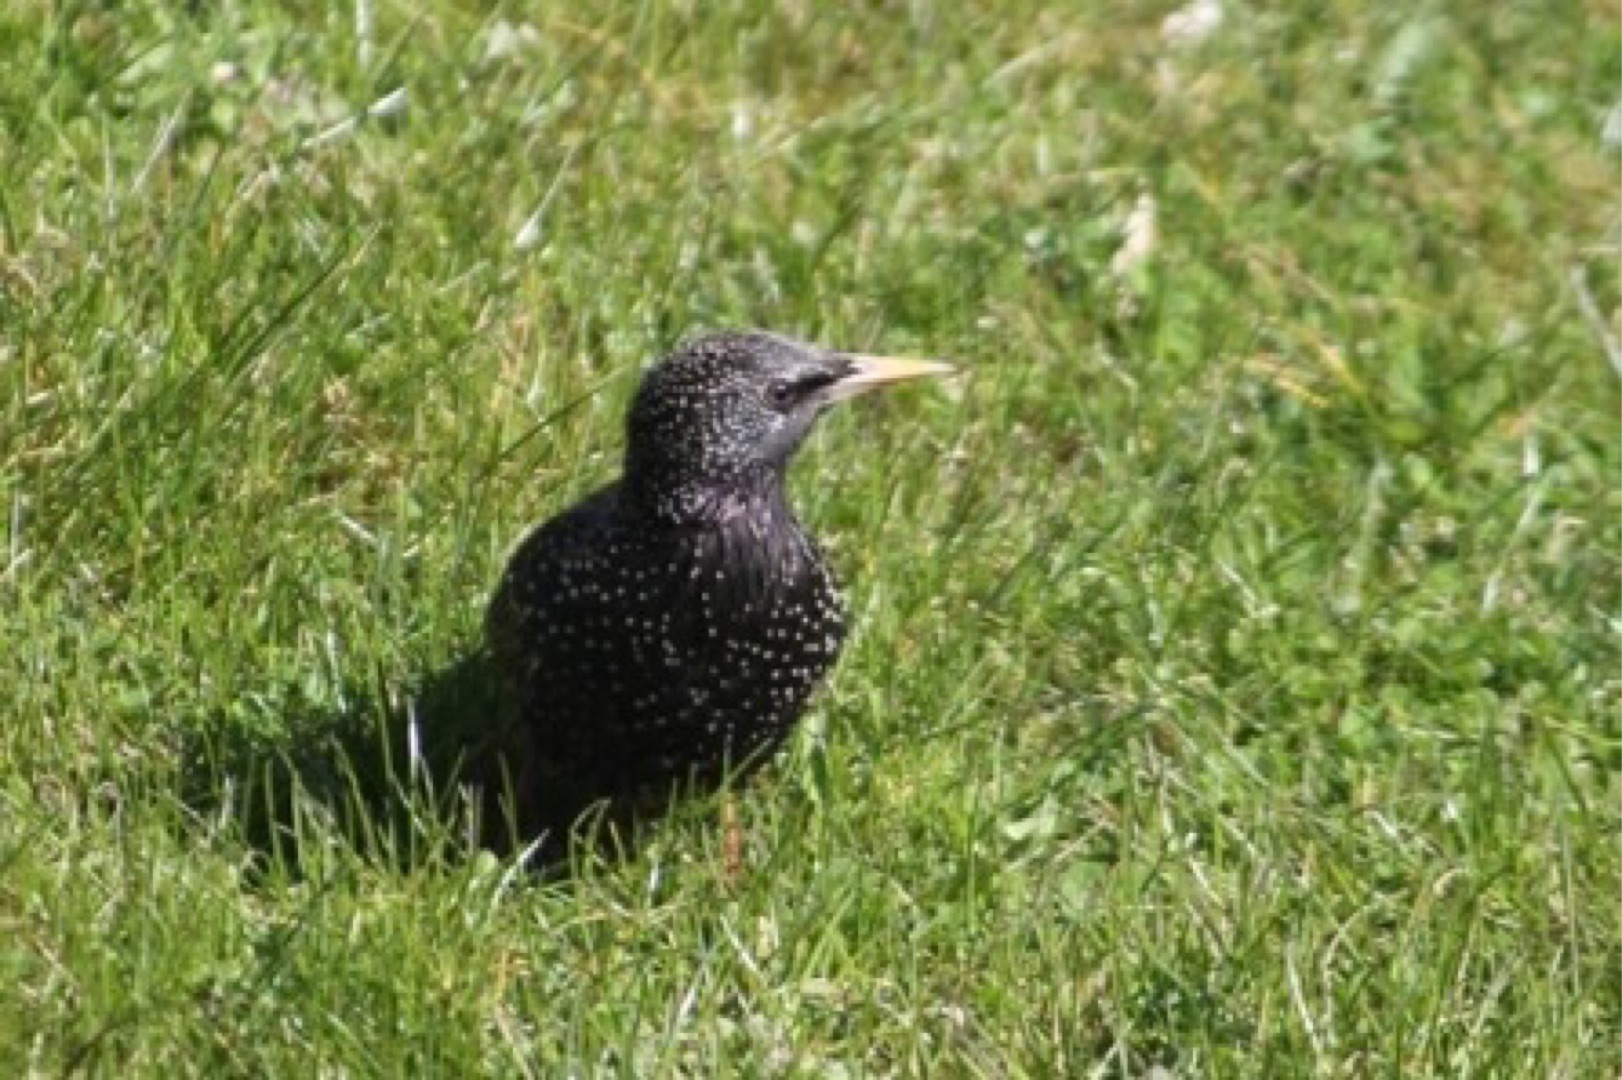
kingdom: Animalia
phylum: Chordata
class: Aves
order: Passeriformes
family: Sturnidae
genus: Sturnus
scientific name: Sturnus vulgaris
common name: Stær
